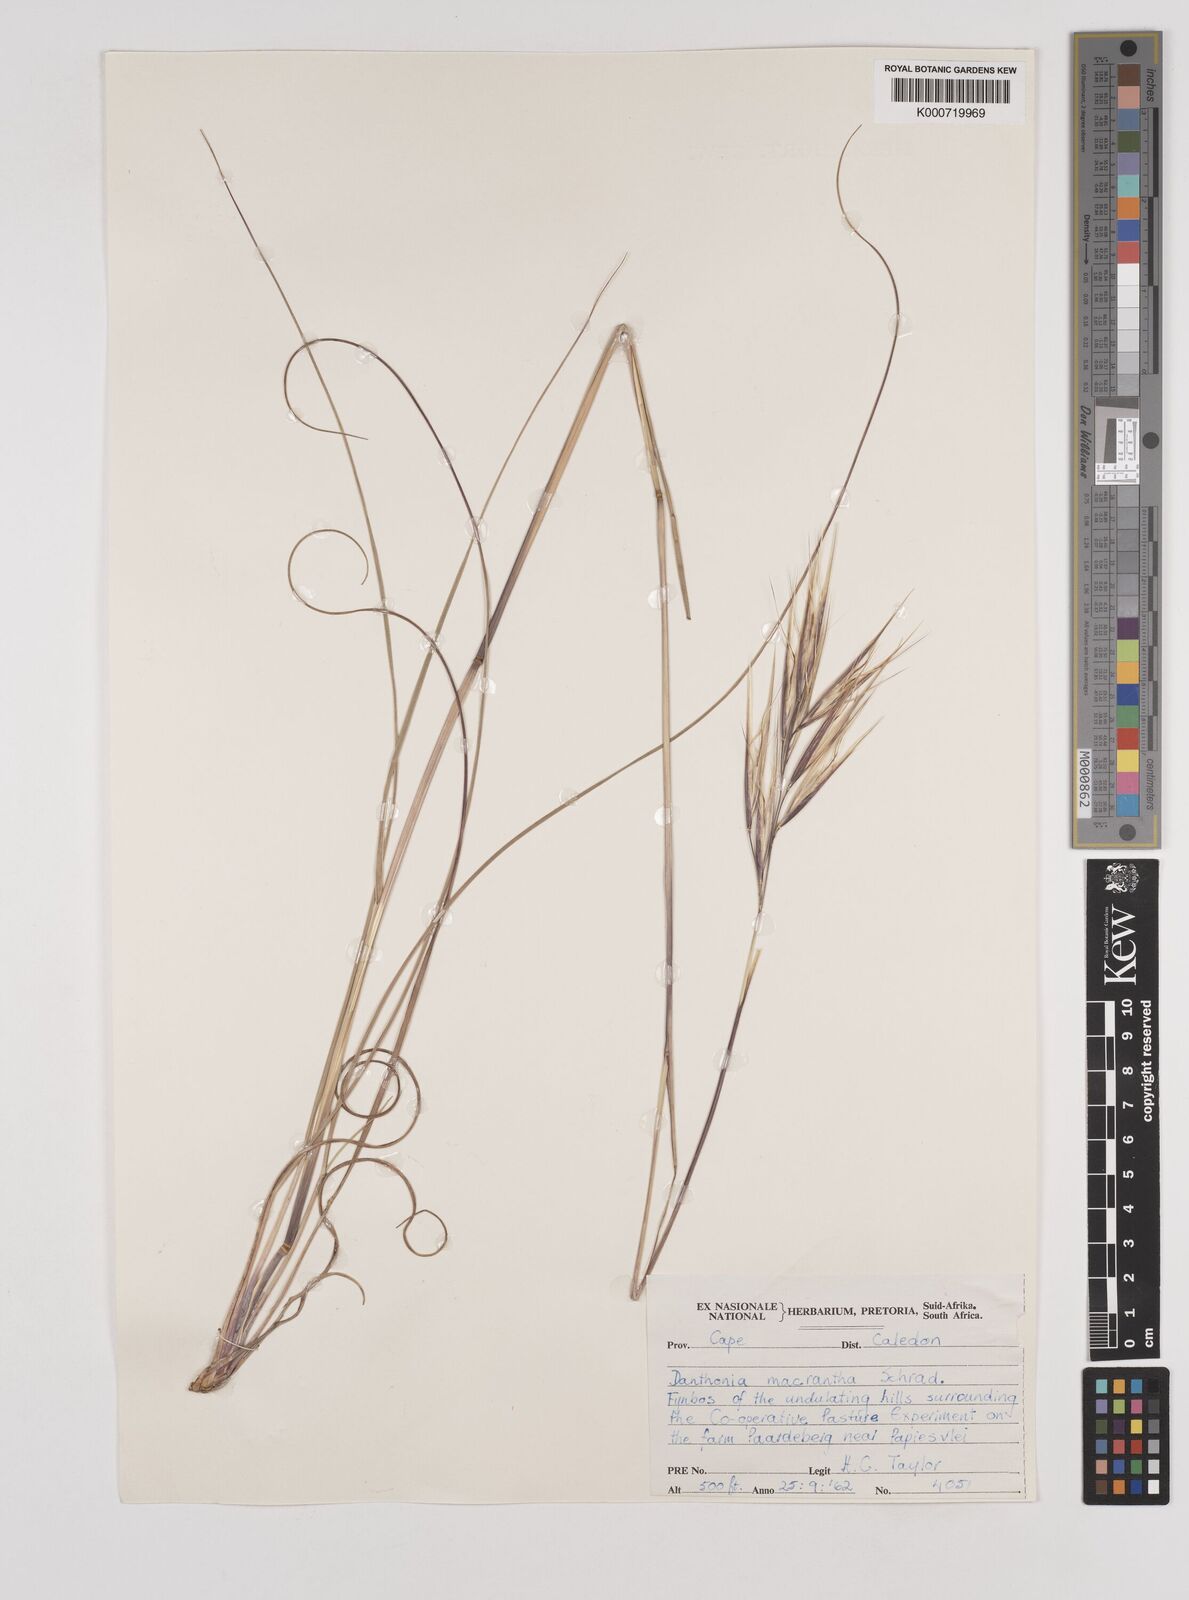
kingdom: Plantae
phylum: Tracheophyta
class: Liliopsida
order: Poales
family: Poaceae
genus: Pseudopentameris
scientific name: Pseudopentameris macrantha
